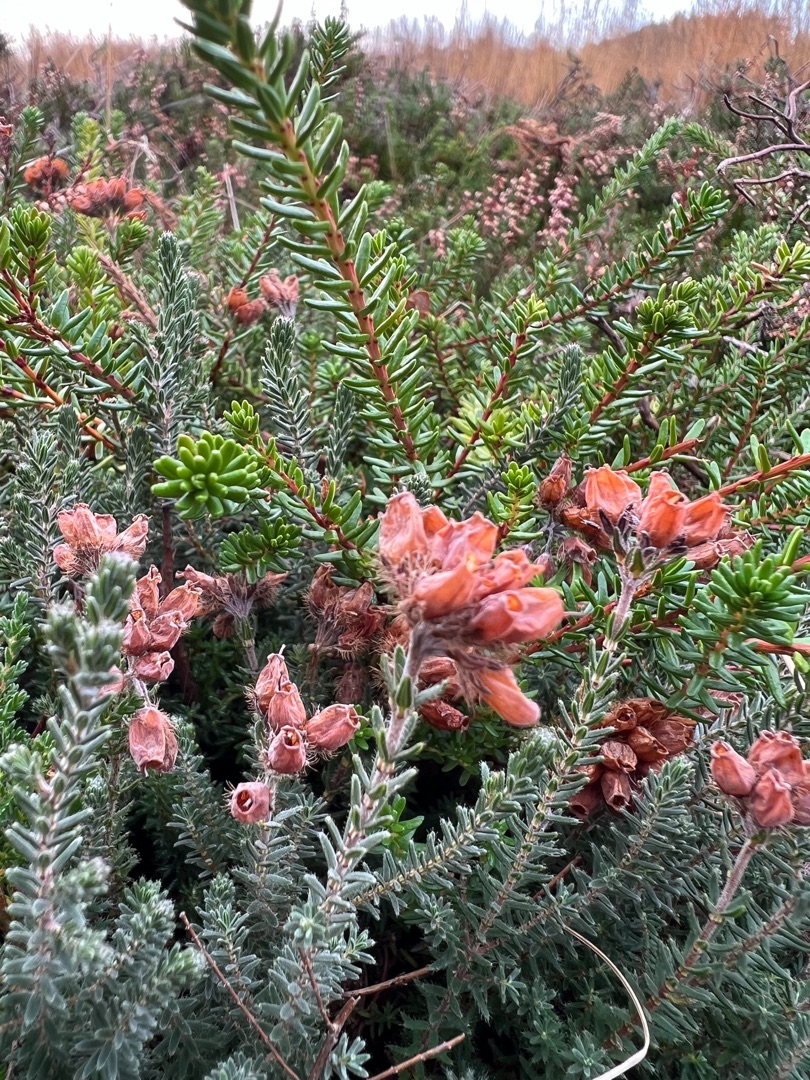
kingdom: Plantae
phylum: Tracheophyta
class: Magnoliopsida
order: Ericales
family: Ericaceae
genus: Erica
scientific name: Erica tetralix
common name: Klokkelyng
